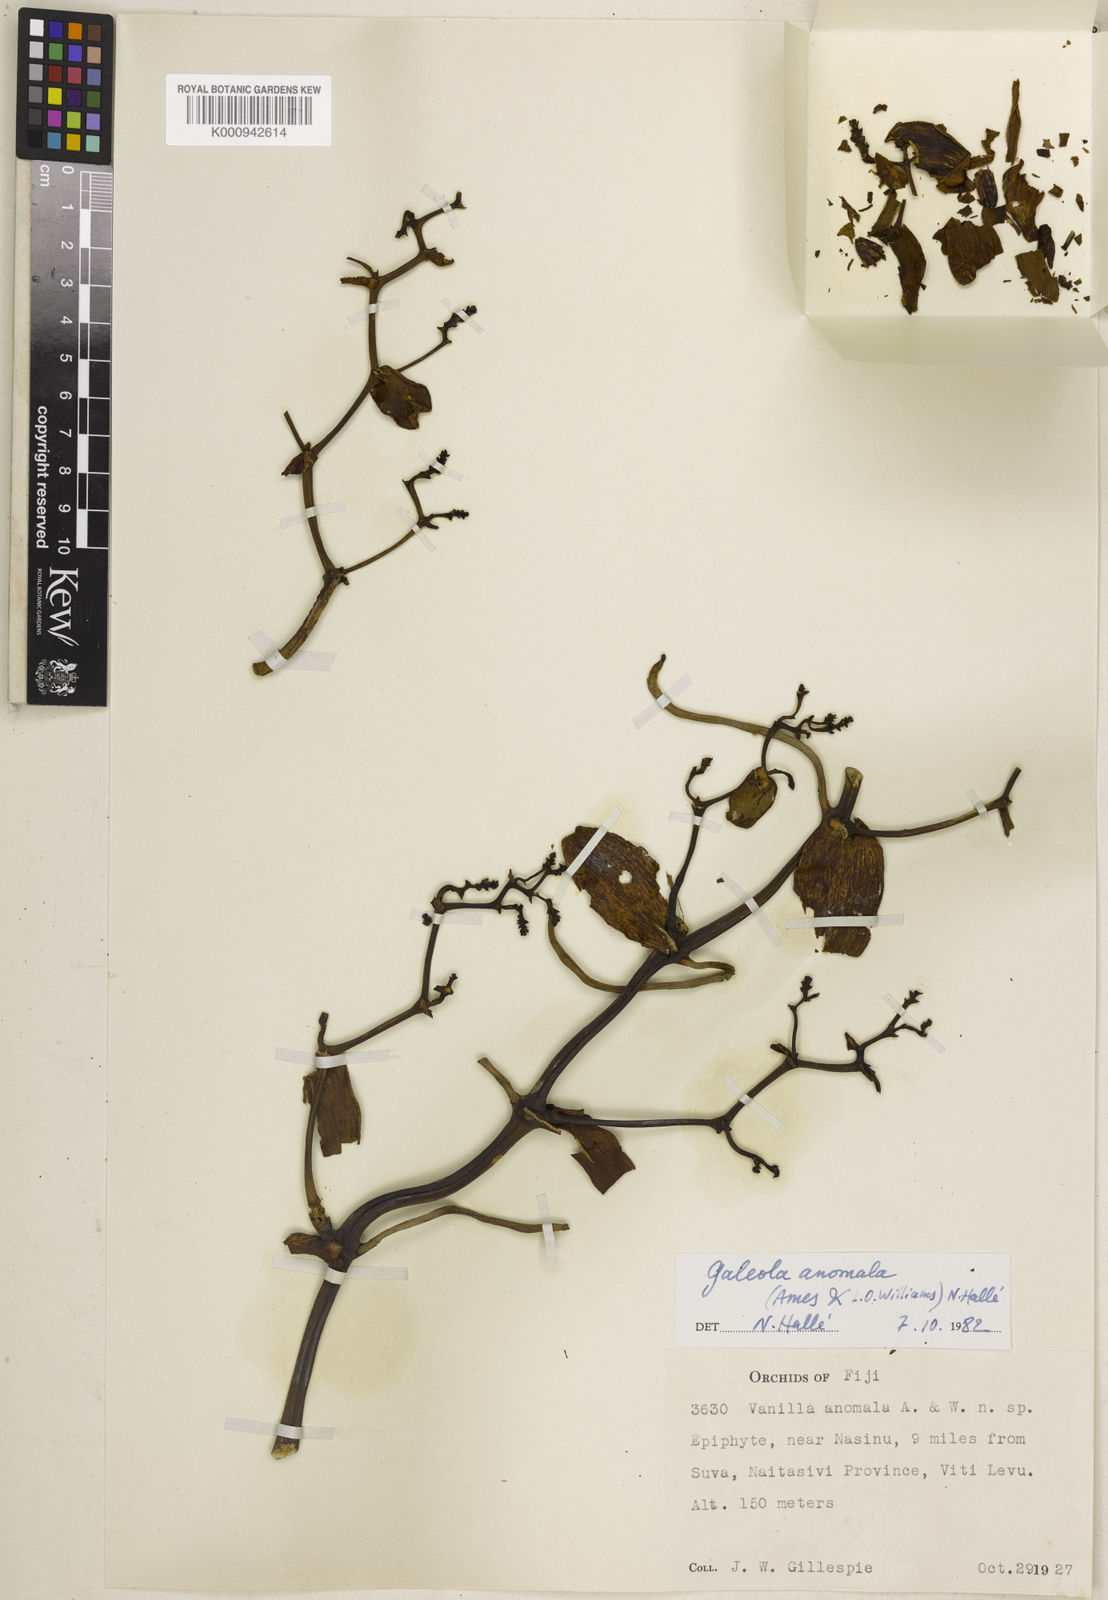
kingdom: Plantae
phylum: Tracheophyta
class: Liliopsida
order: Asparagales
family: Orchidaceae
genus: Pseudovanilla
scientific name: Pseudovanilla anomala
